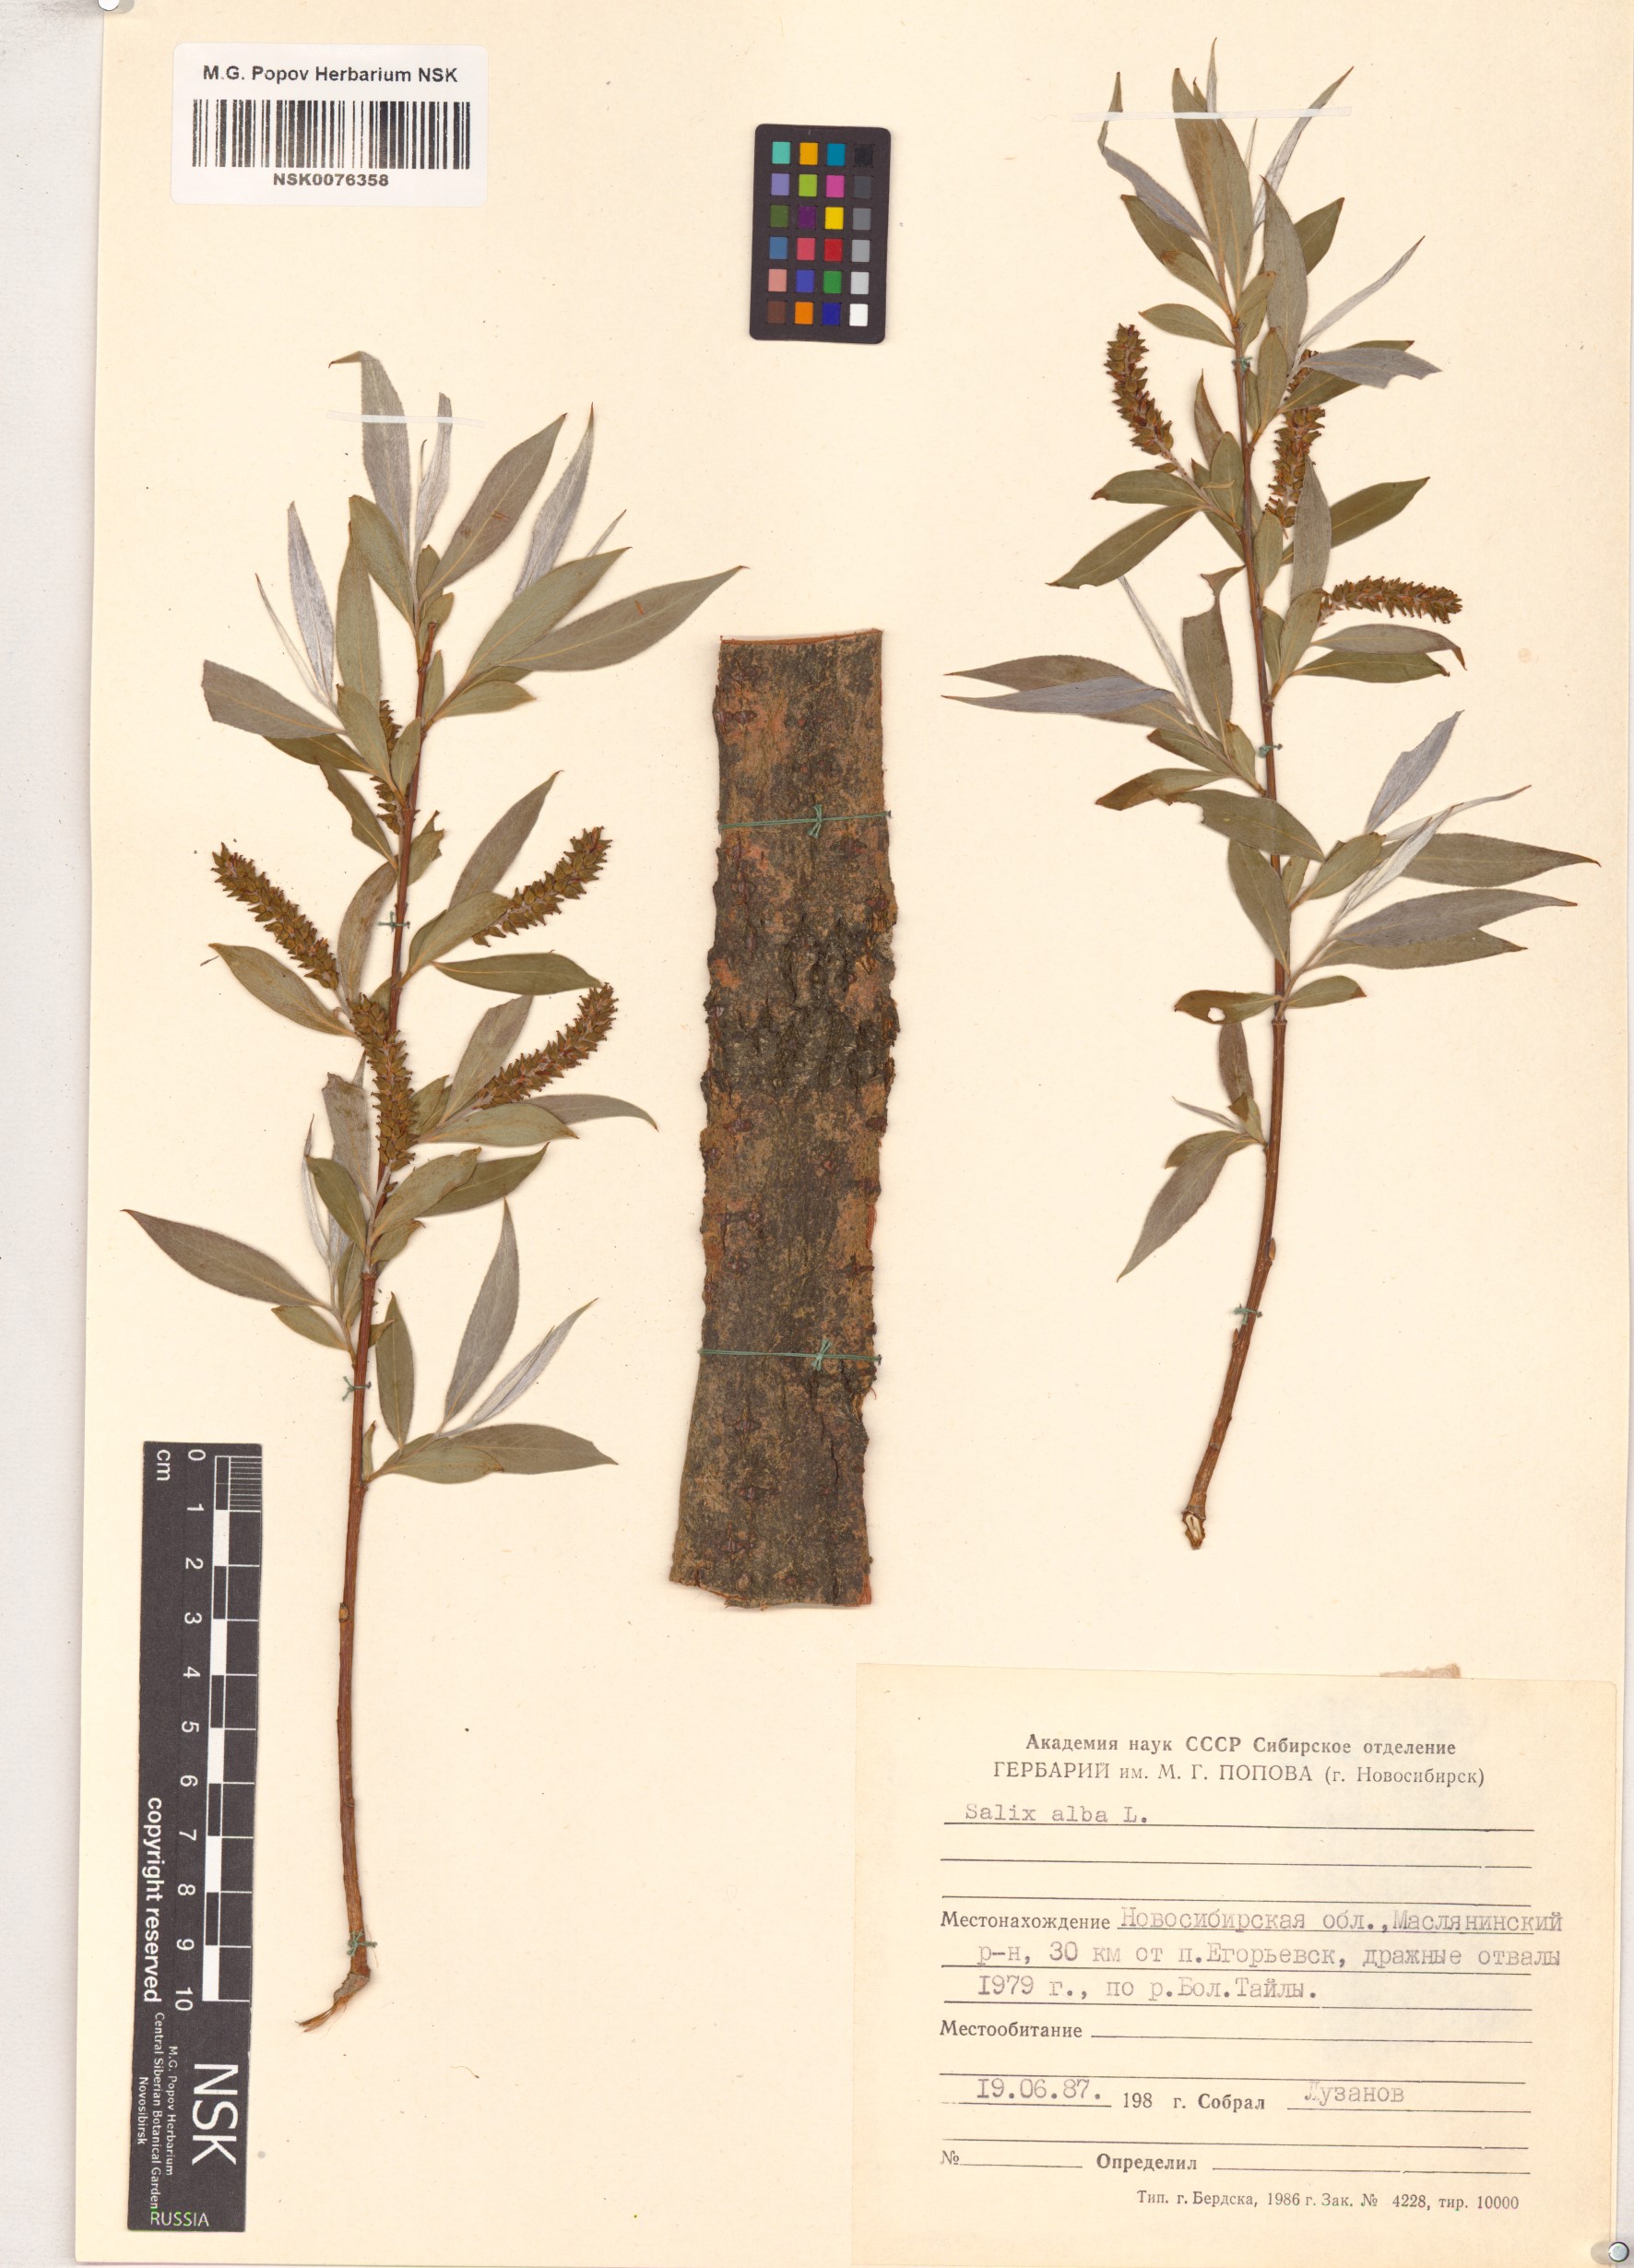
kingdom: Plantae
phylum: Tracheophyta
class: Magnoliopsida
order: Malpighiales
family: Salicaceae
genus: Salix
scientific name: Salix alba
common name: White willow
